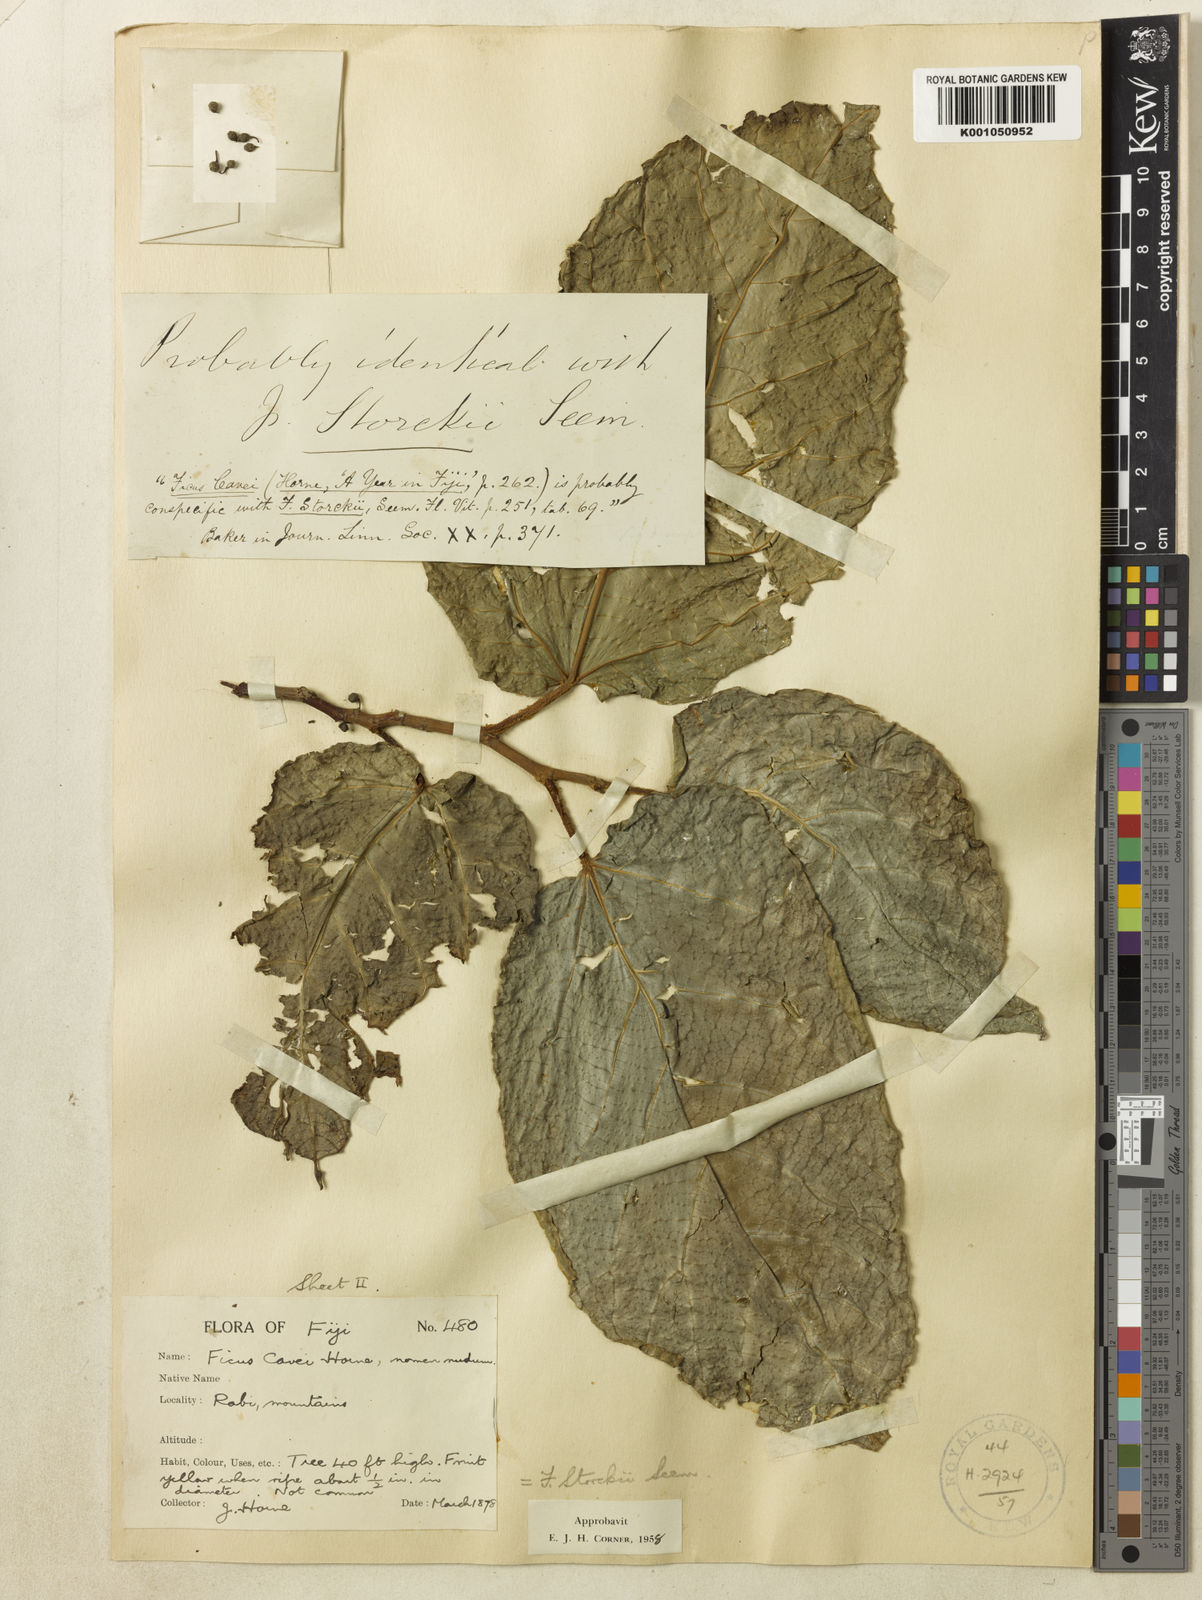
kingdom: Plantae
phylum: Tracheophyta
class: Magnoliopsida
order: Rosales
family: Moraceae
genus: Ficus
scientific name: Ficus storckii
